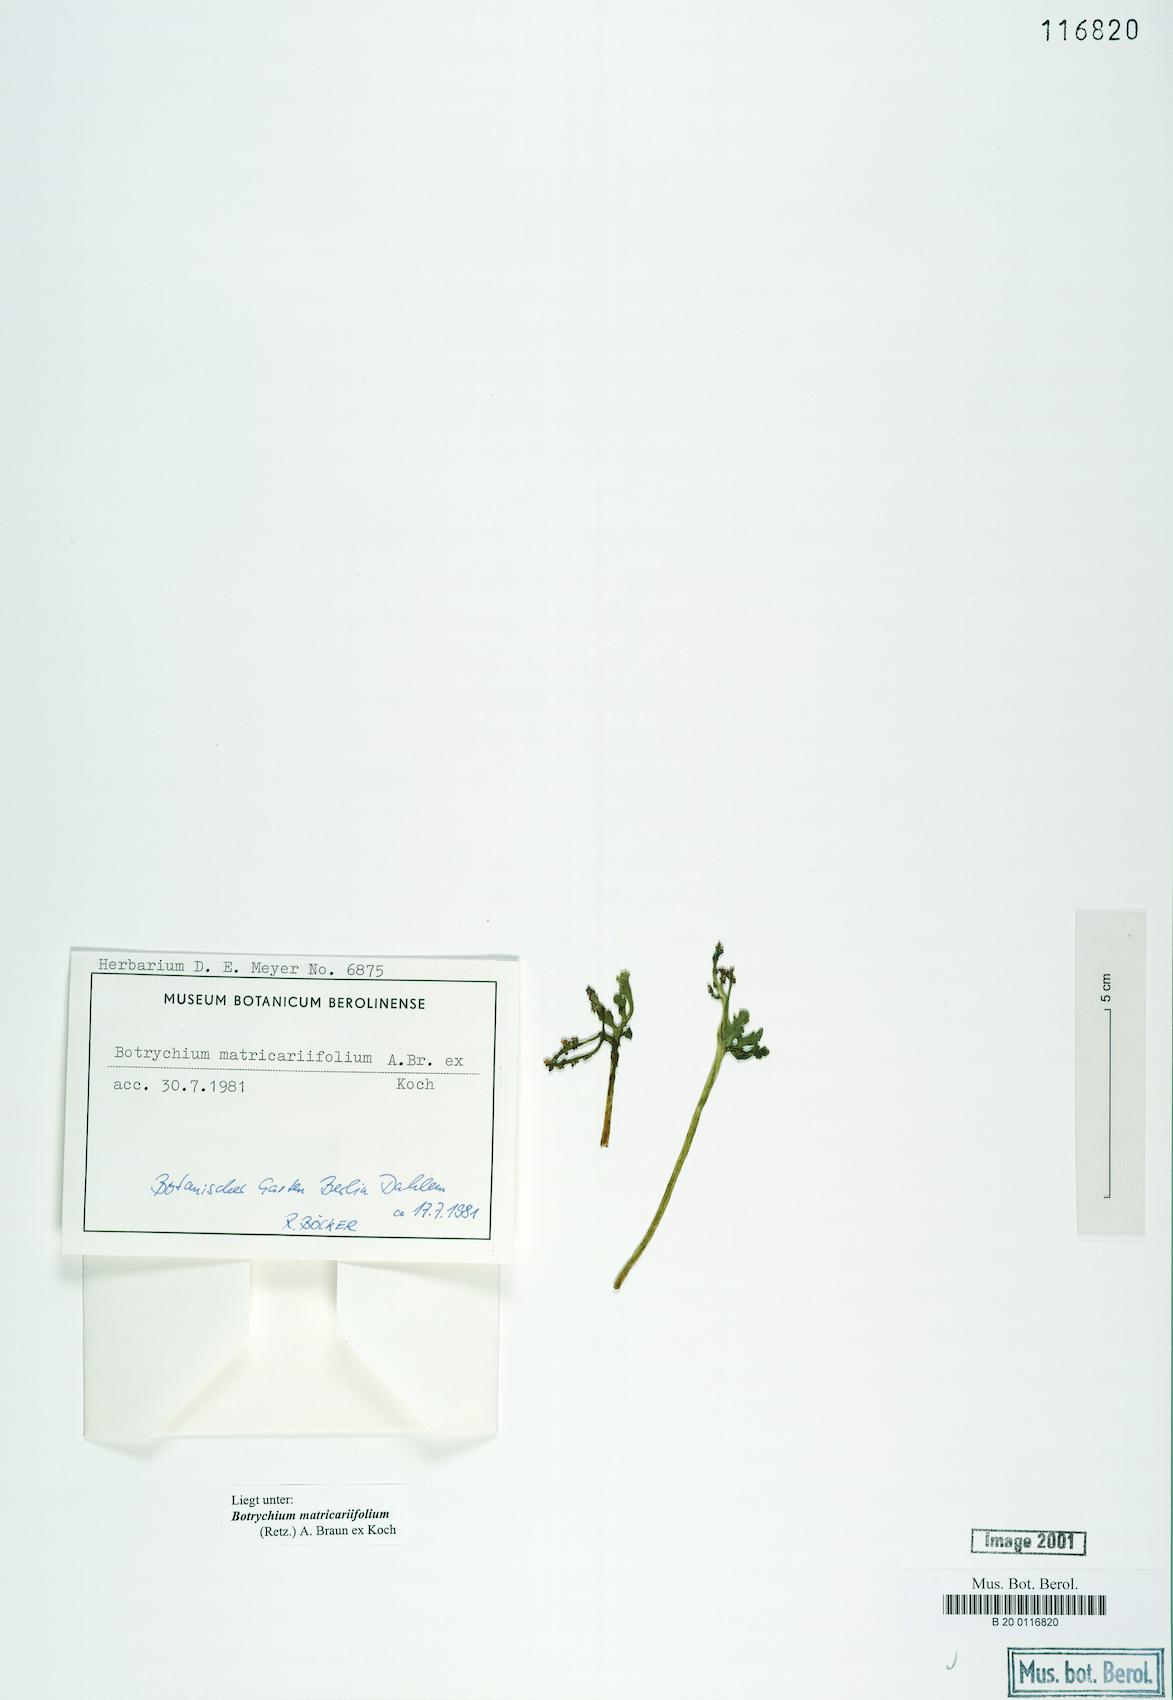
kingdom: Plantae
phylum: Tracheophyta
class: Polypodiopsida
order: Ophioglossales
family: Ophioglossaceae
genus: Botrychium
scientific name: Botrychium matricariifolium
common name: Branched moonwort
